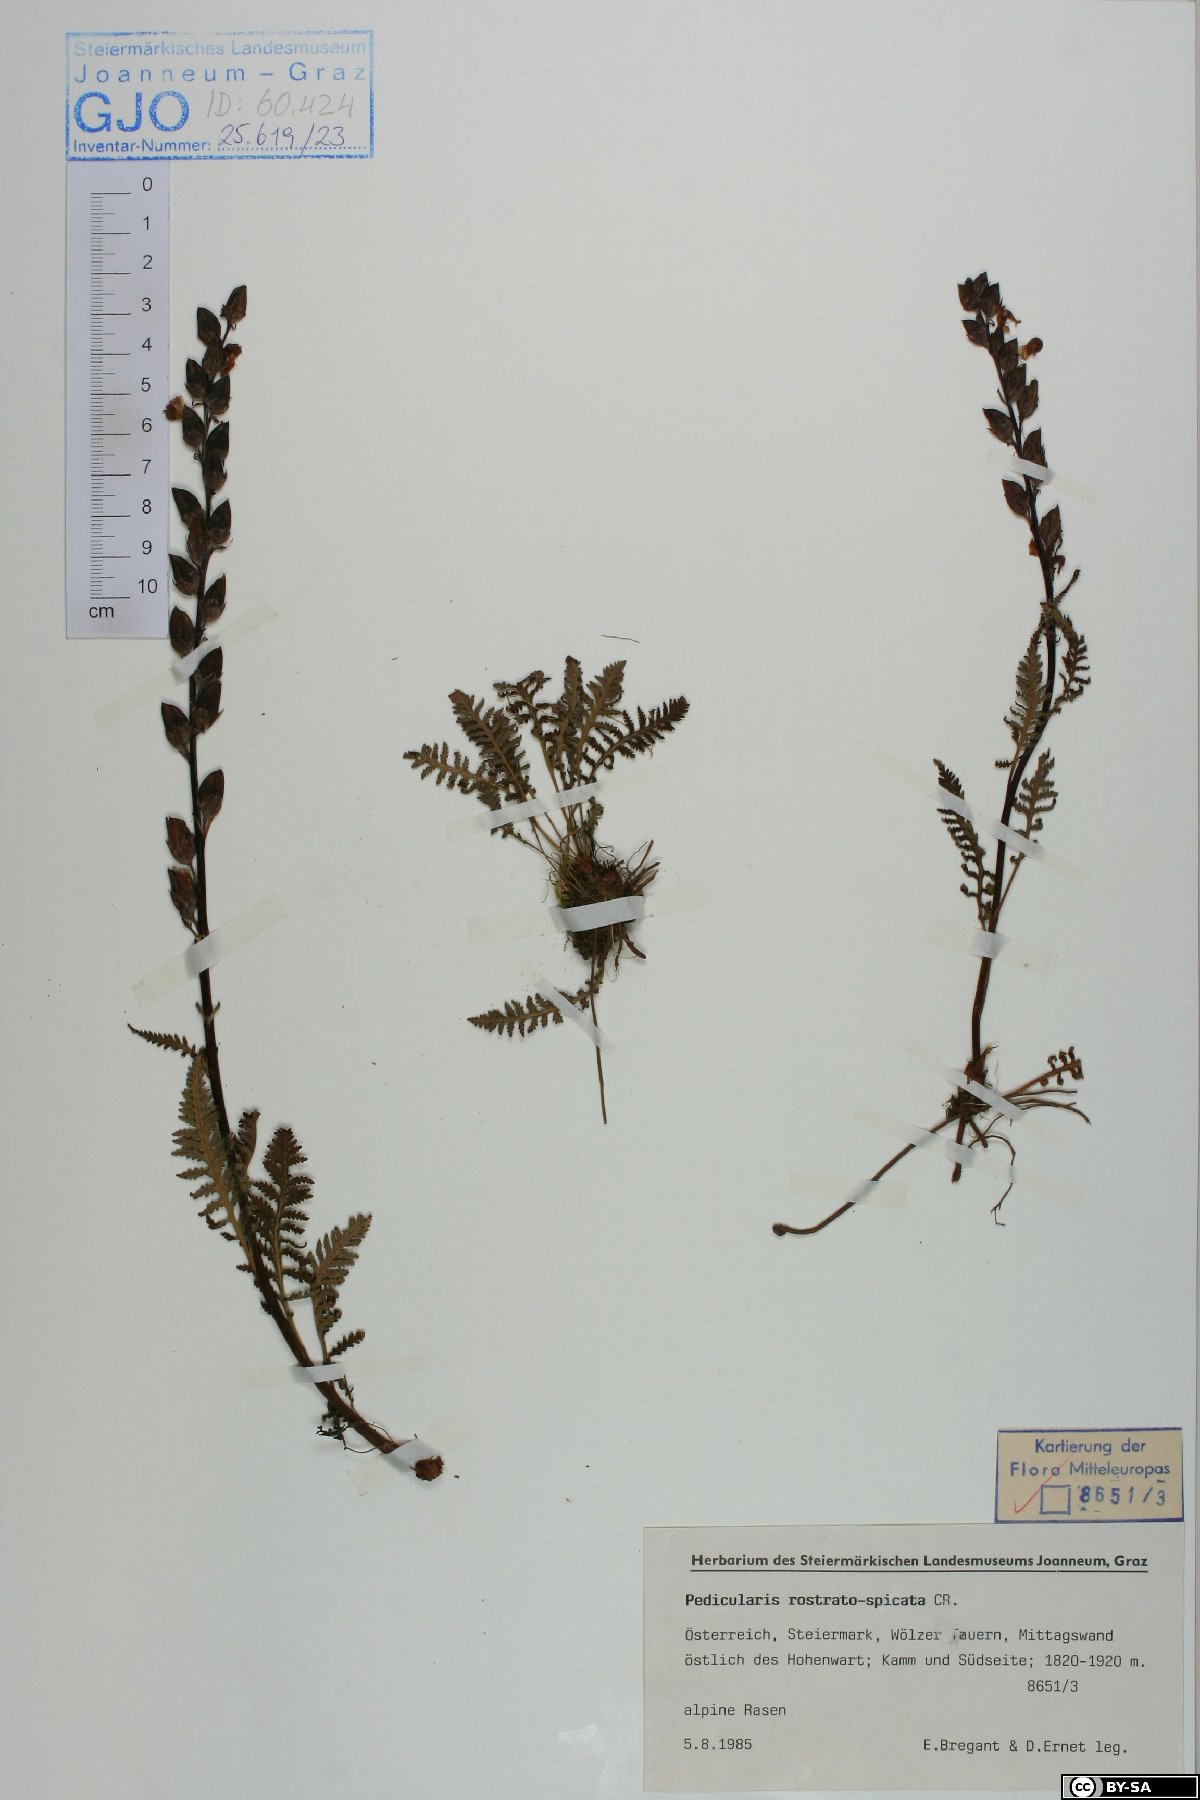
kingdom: Plantae
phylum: Tracheophyta
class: Magnoliopsida
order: Lamiales
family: Orobanchaceae
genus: Pedicularis
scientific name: Pedicularis rostratospicata
